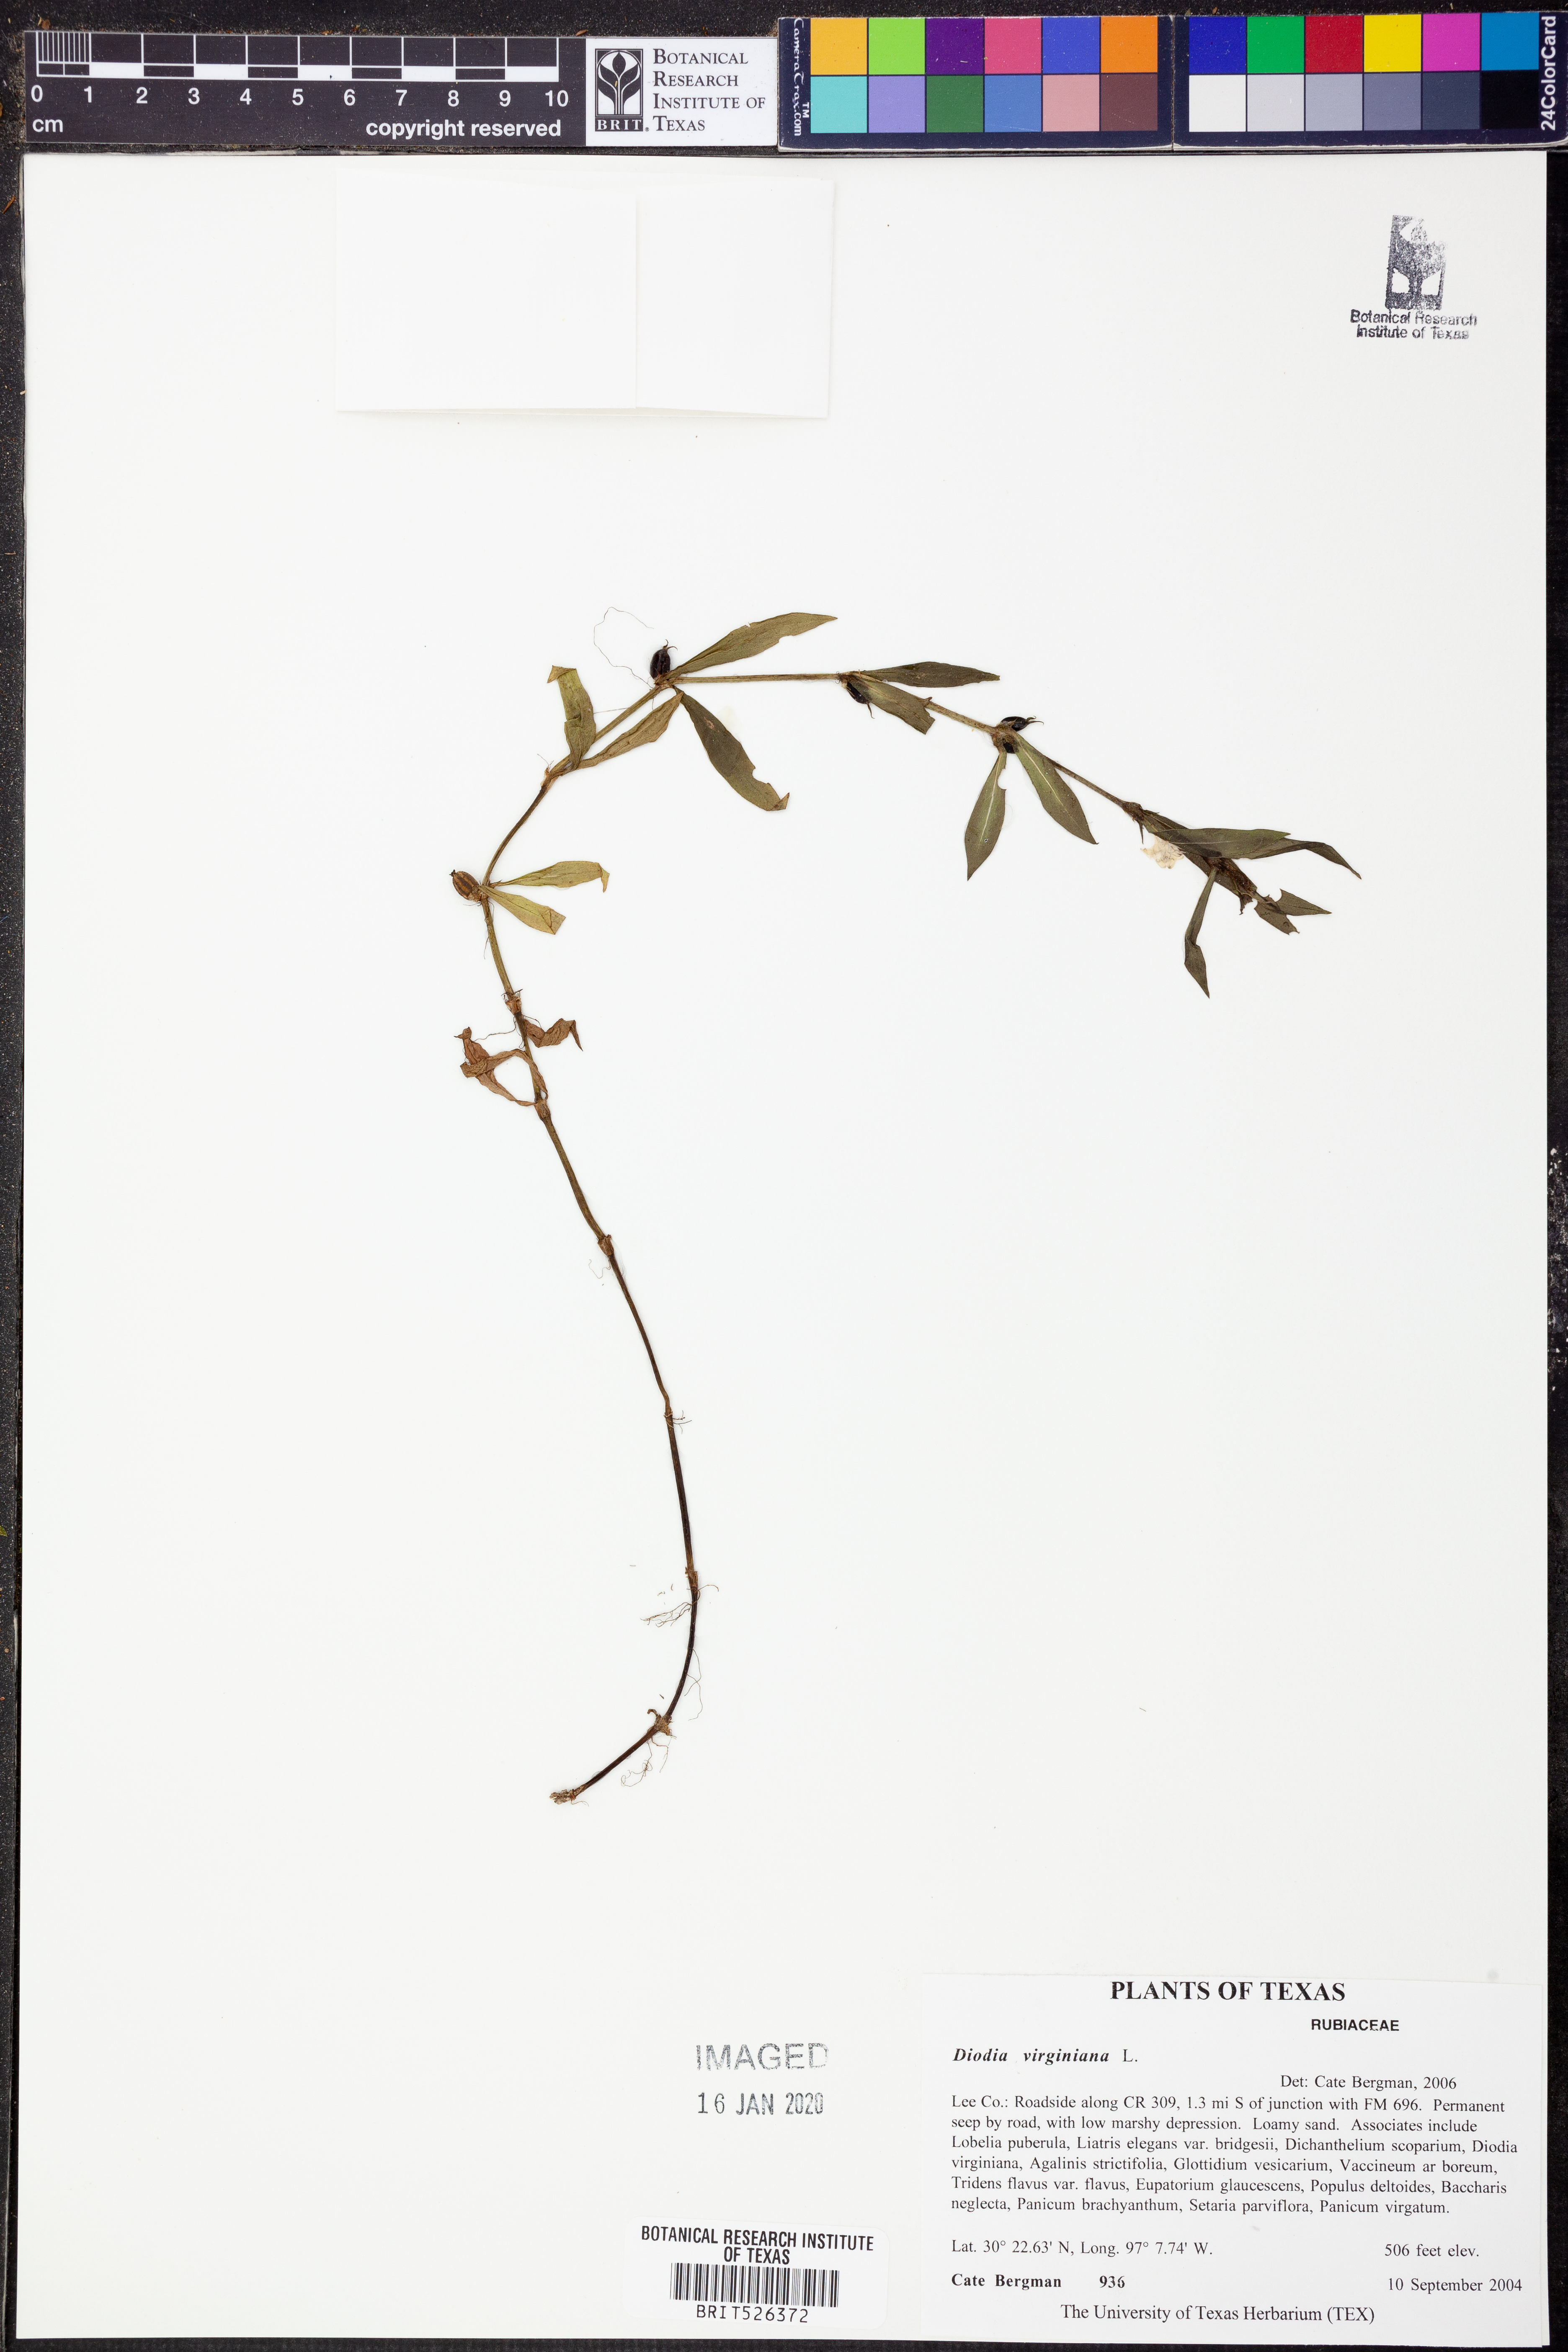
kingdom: Plantae
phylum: Tracheophyta
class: Magnoliopsida
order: Gentianales
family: Rubiaceae
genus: Diodia
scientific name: Diodia virginiana
